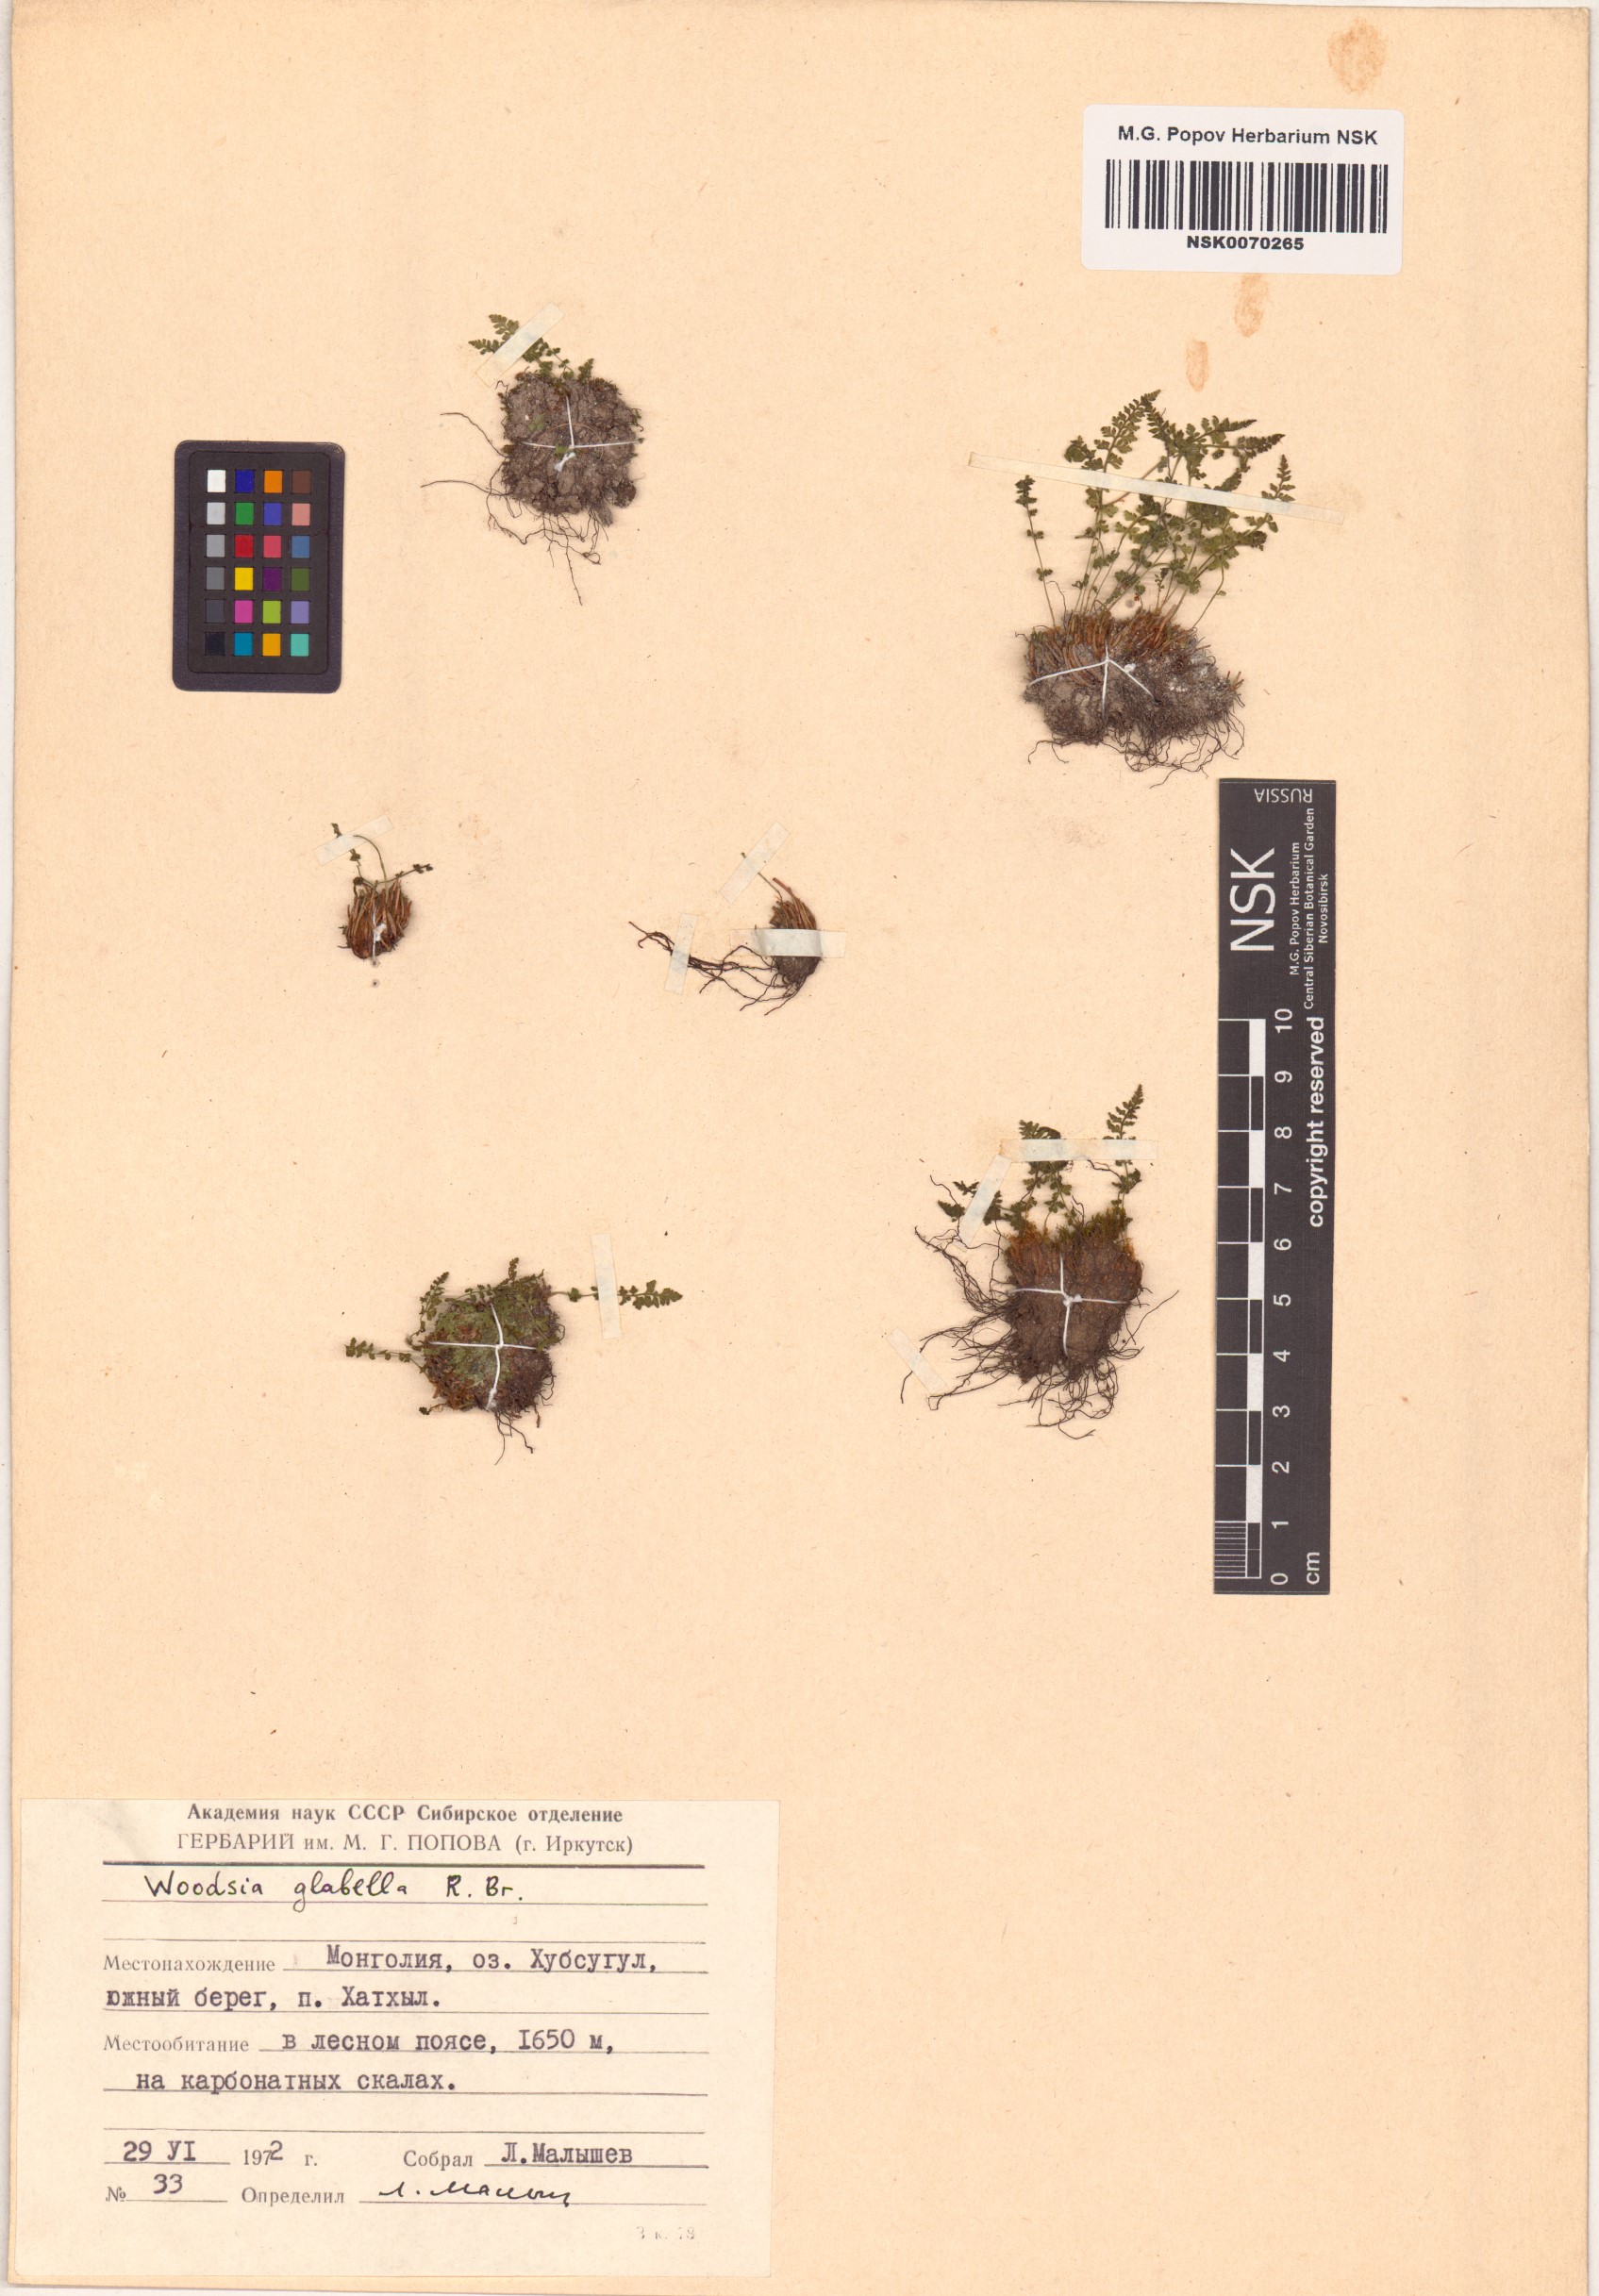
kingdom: Plantae
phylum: Tracheophyta
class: Polypodiopsida
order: Polypodiales
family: Woodsiaceae
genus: Woodsia
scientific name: Woodsia glabella
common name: Smooth woodsia
